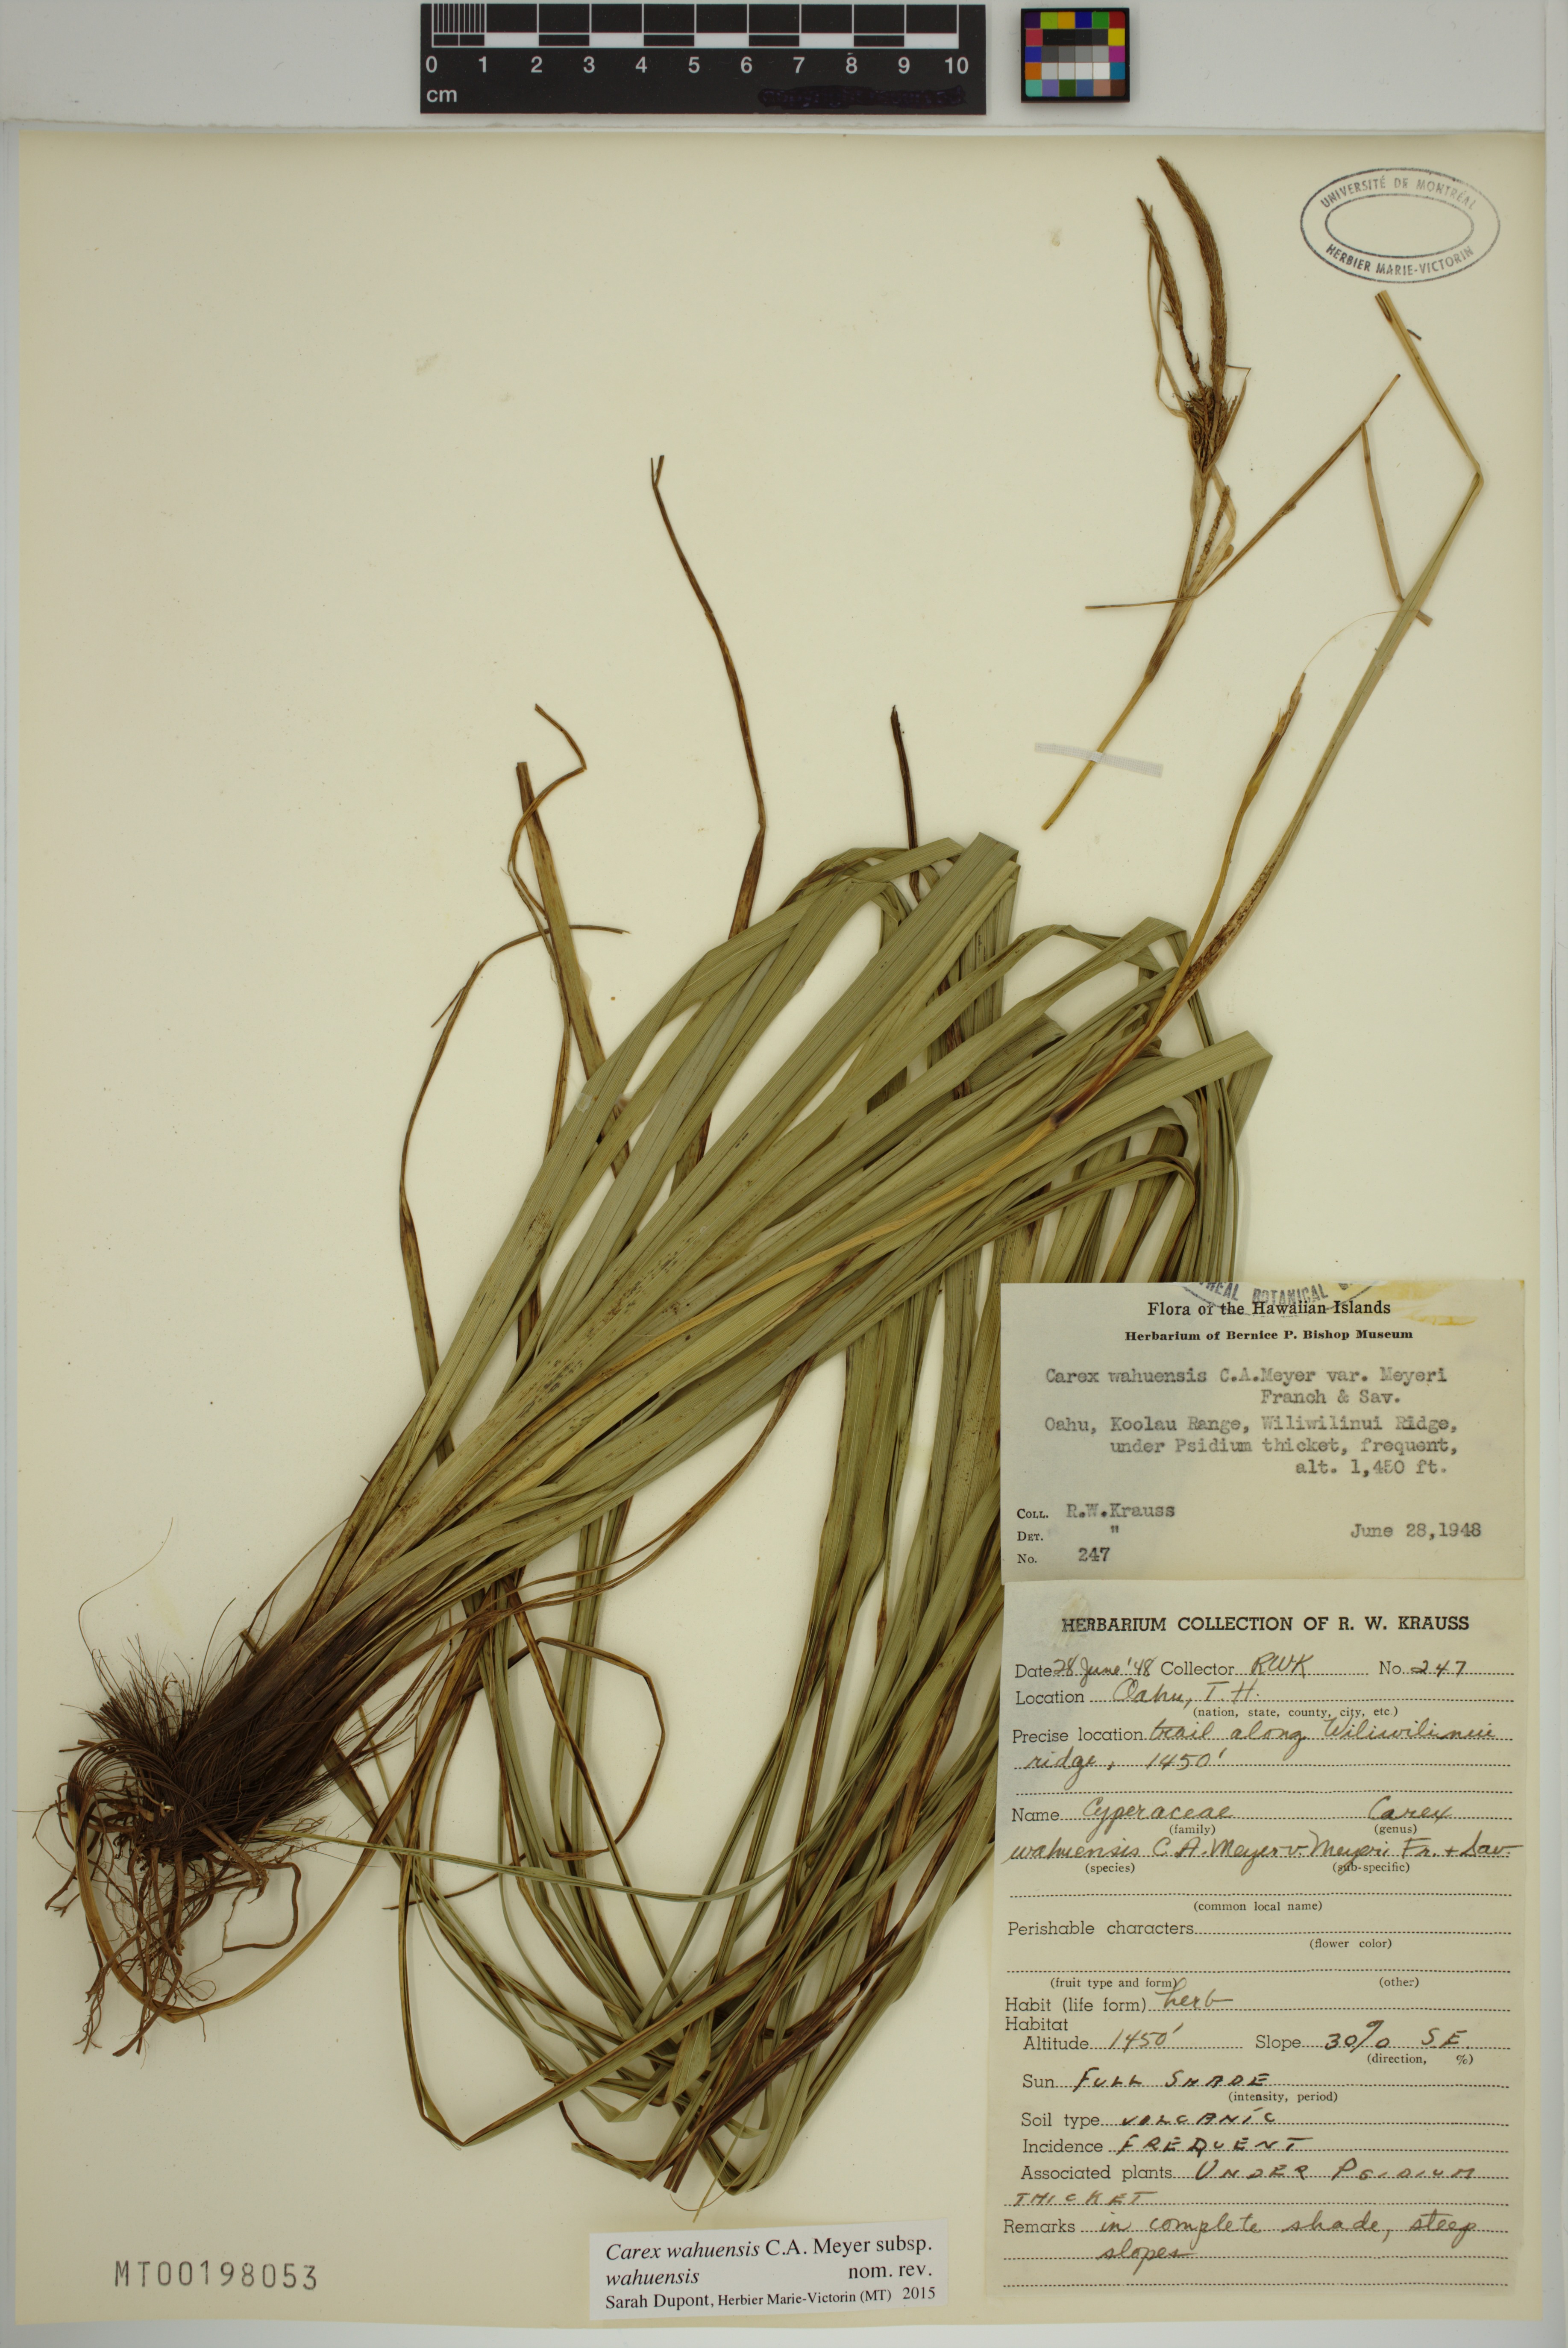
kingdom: Plantae
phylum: Tracheophyta
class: Liliopsida
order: Poales
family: Cyperaceae
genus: Carex
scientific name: Carex wahuensis
